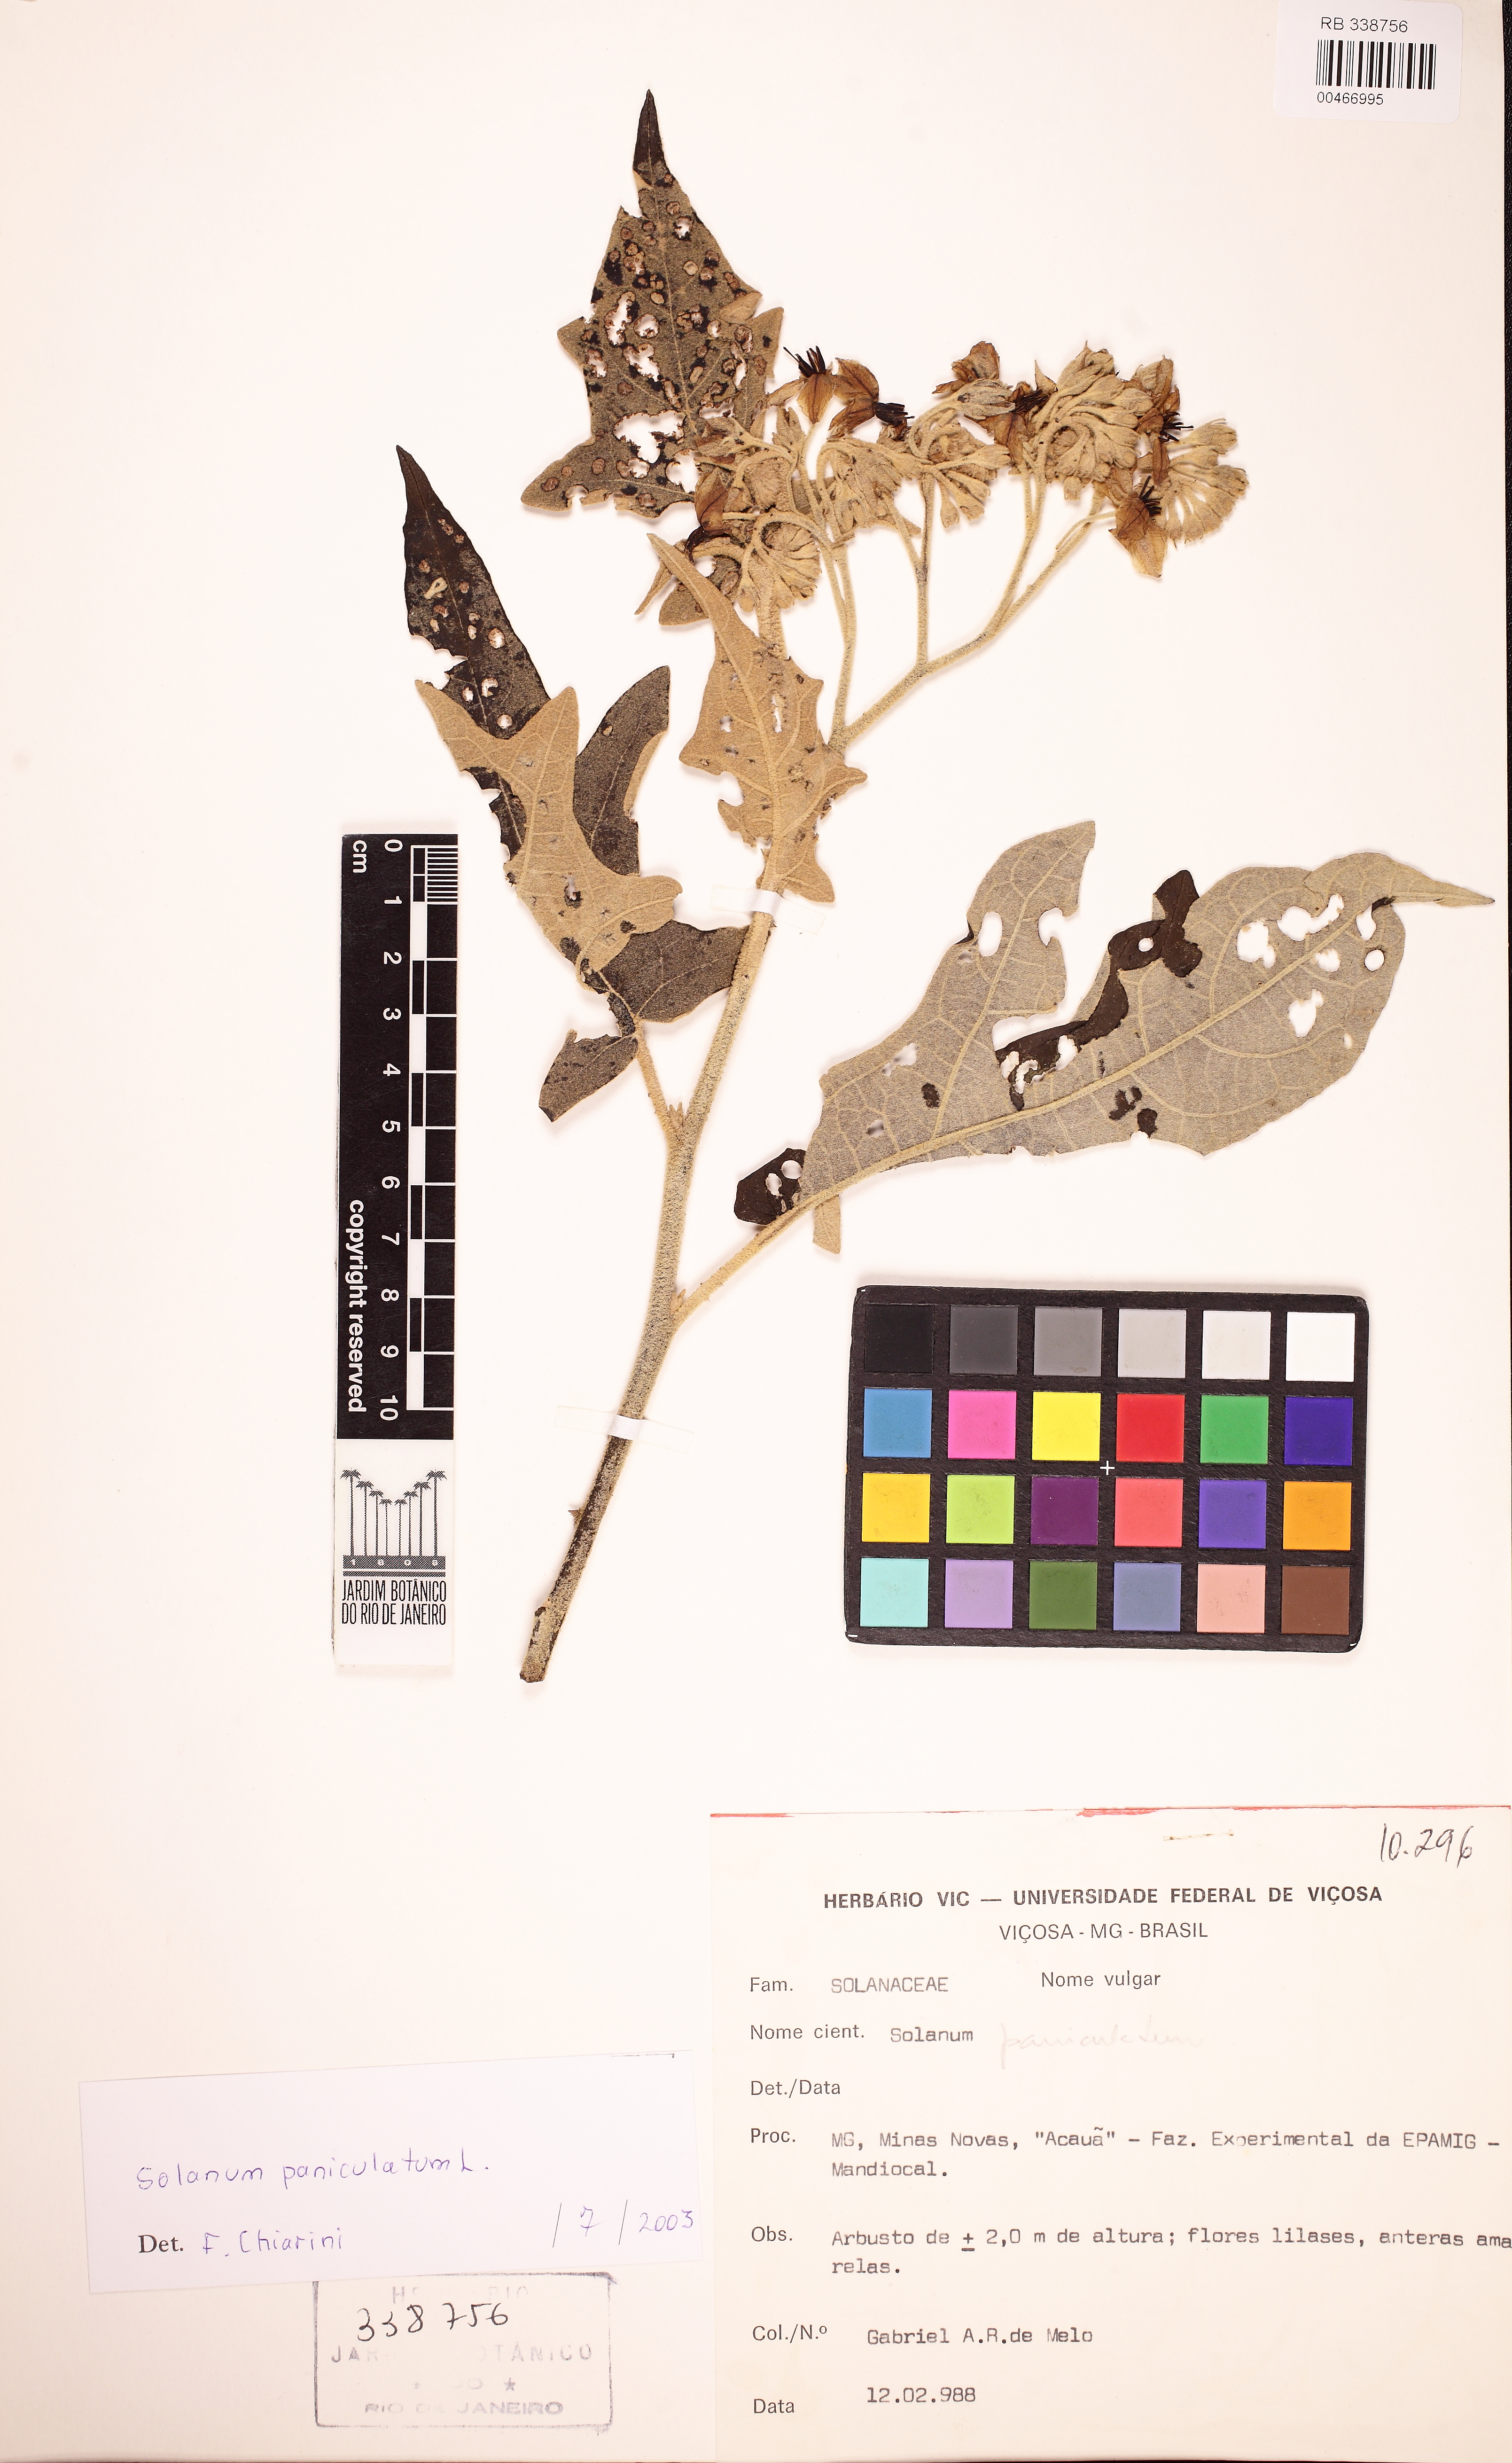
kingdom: Plantae
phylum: Tracheophyta
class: Magnoliopsida
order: Solanales
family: Solanaceae
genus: Solanum
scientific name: Solanum paniculatum
